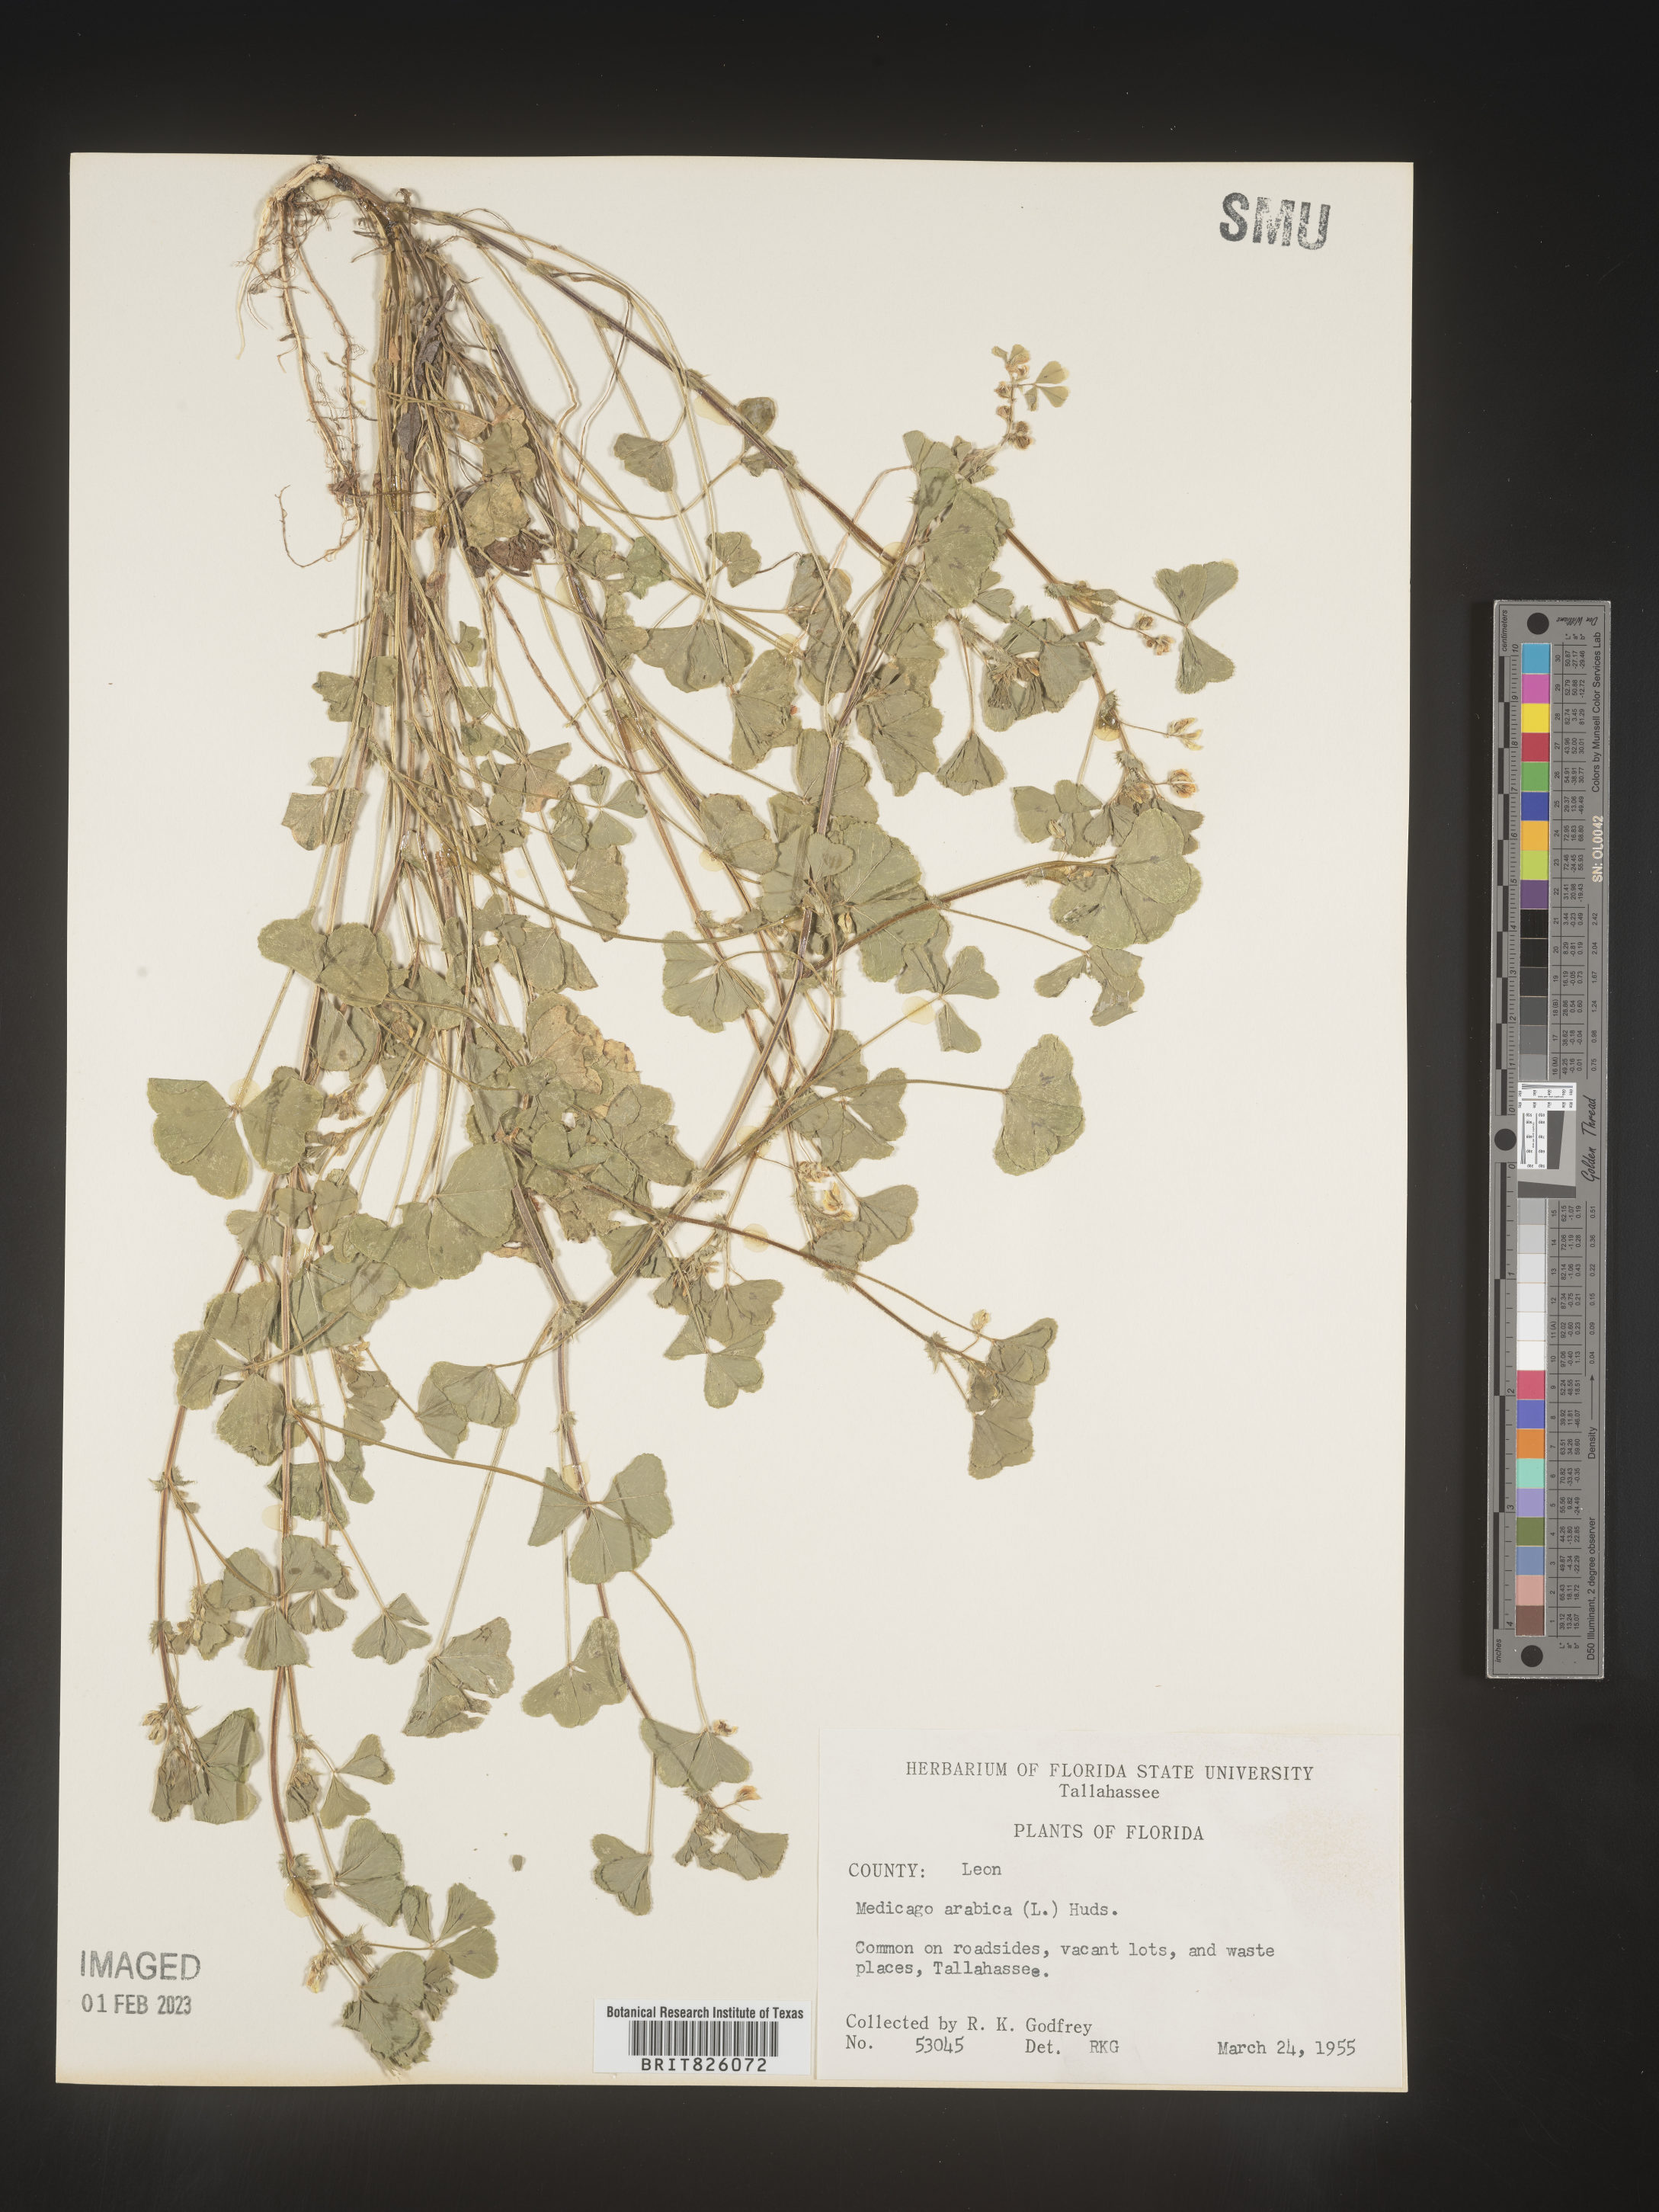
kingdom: Plantae
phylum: Tracheophyta
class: Magnoliopsida
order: Fabales
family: Fabaceae
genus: Medicago
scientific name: Medicago arabica
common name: Spotted medick
